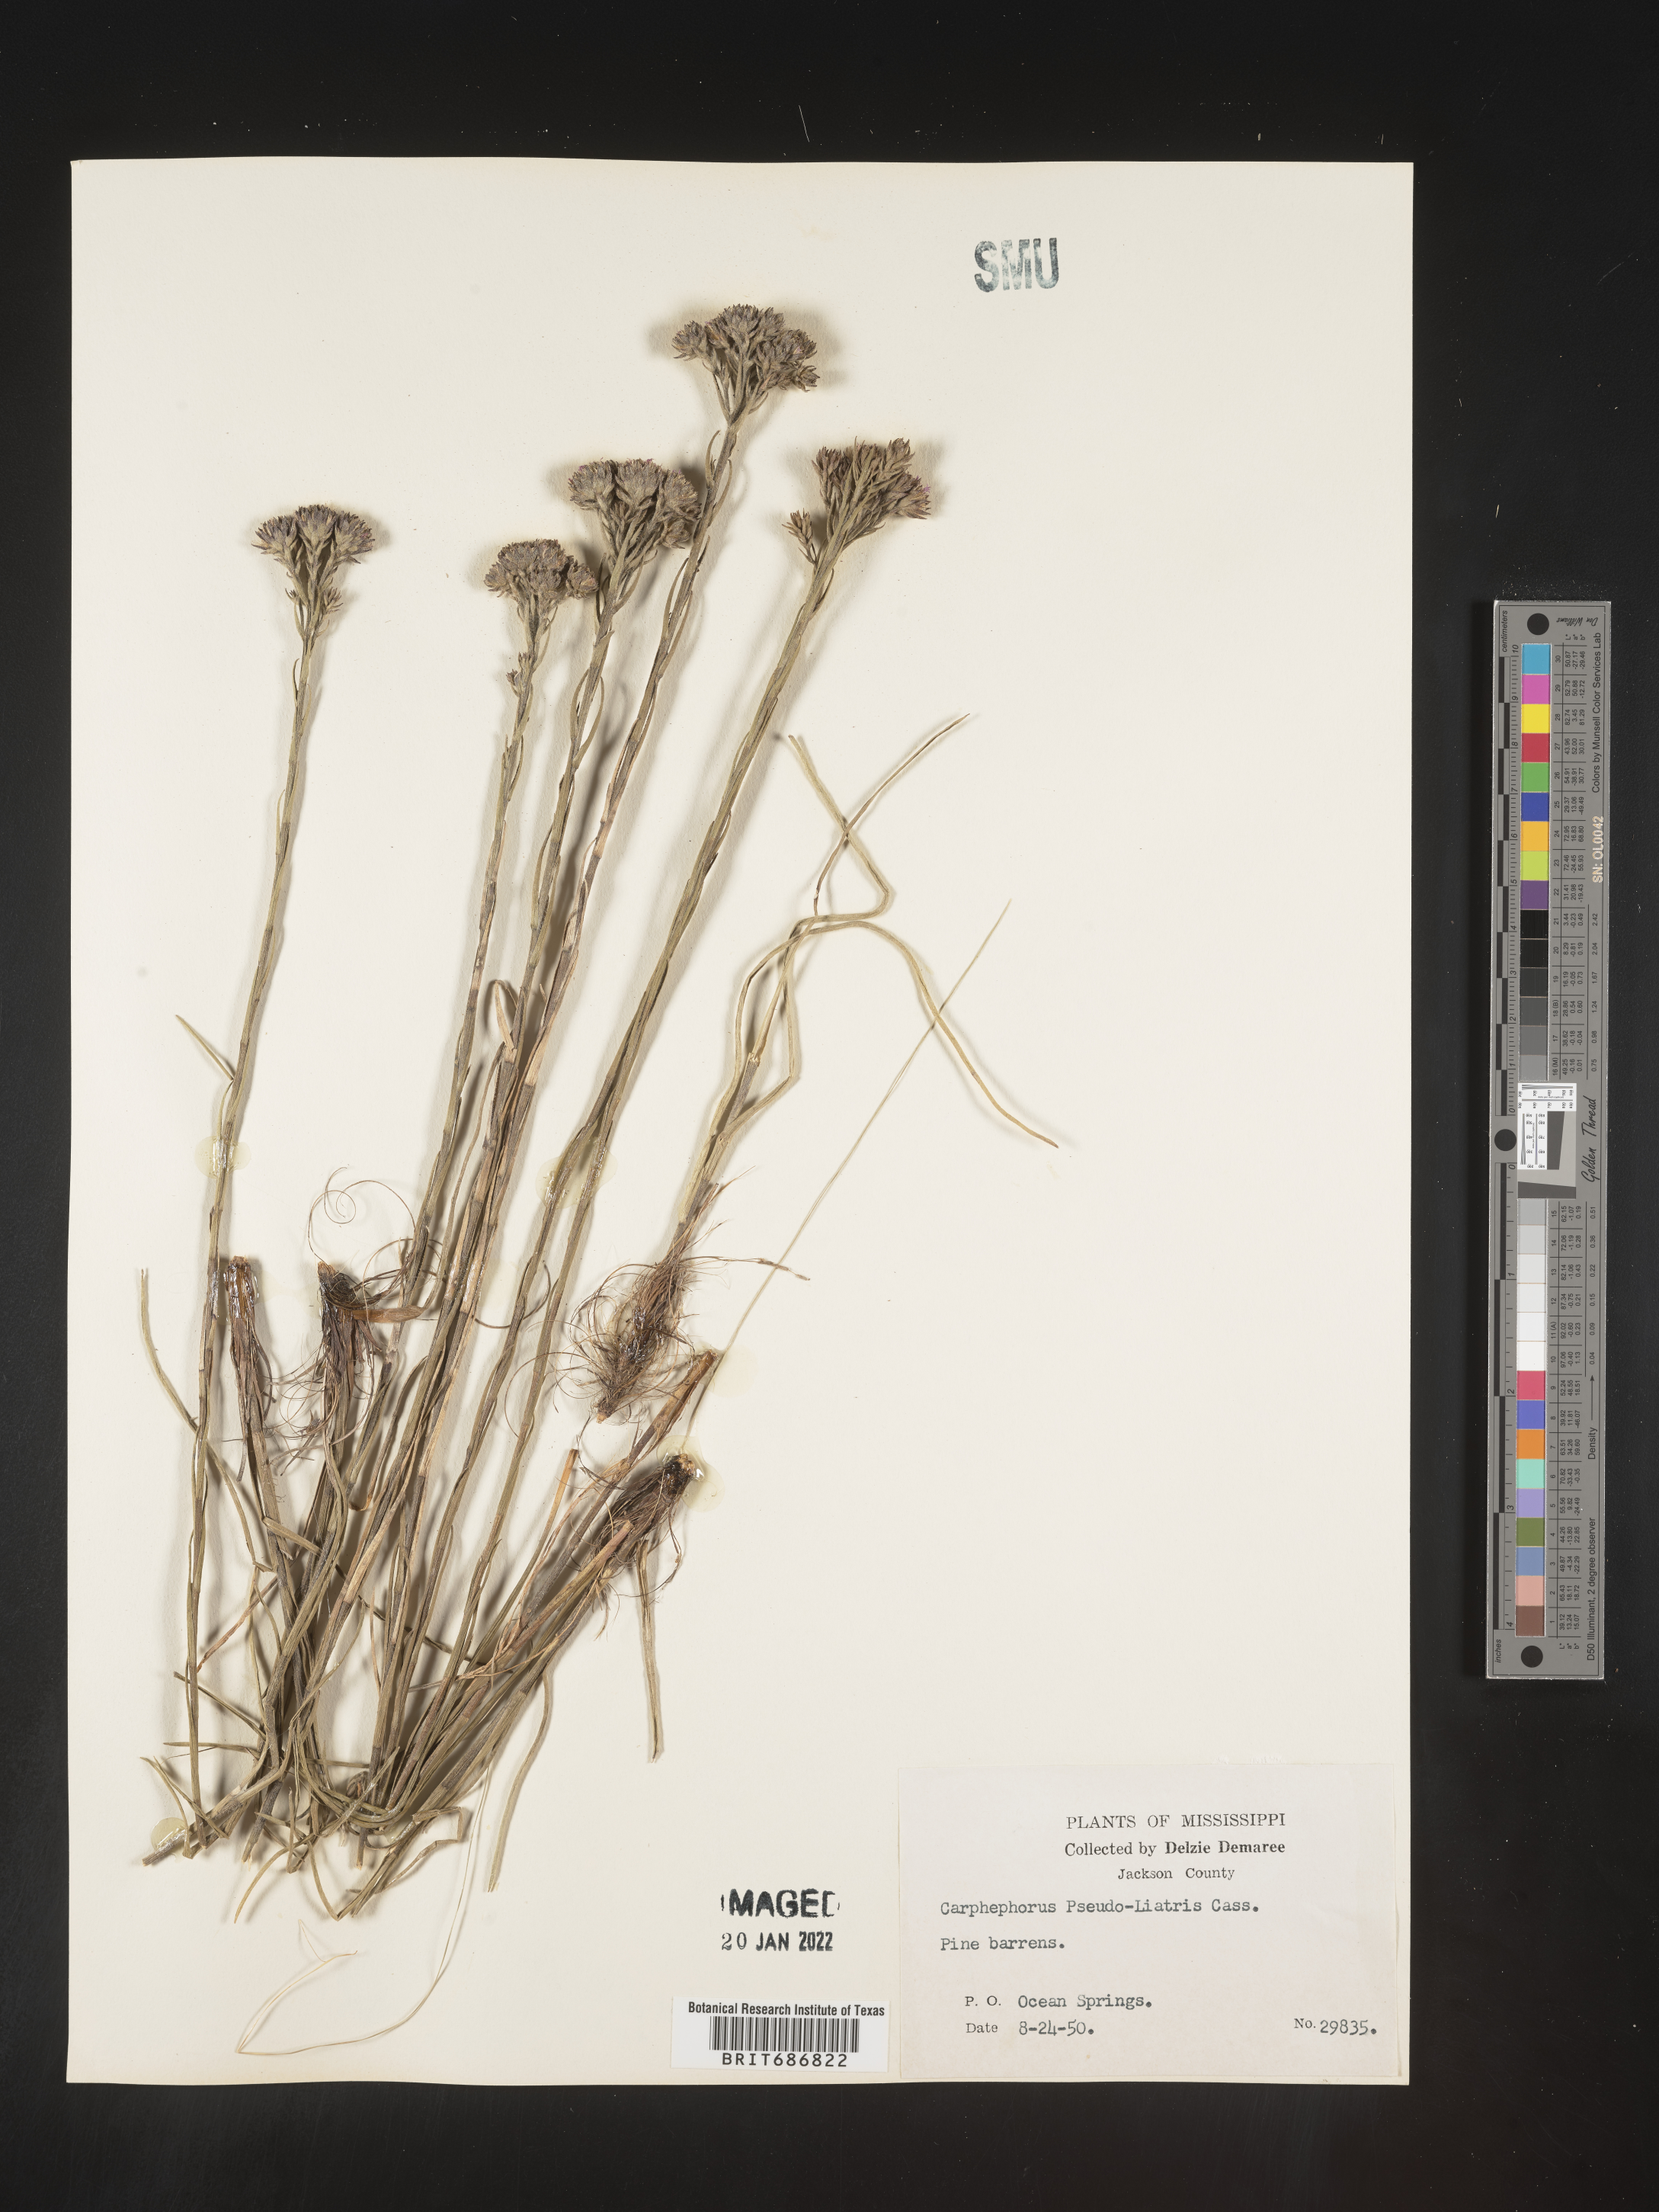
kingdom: Plantae
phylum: Tracheophyta
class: Magnoliopsida
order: Asterales
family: Asteraceae
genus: Carphephorus
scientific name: Carphephorus pseudoliatris
